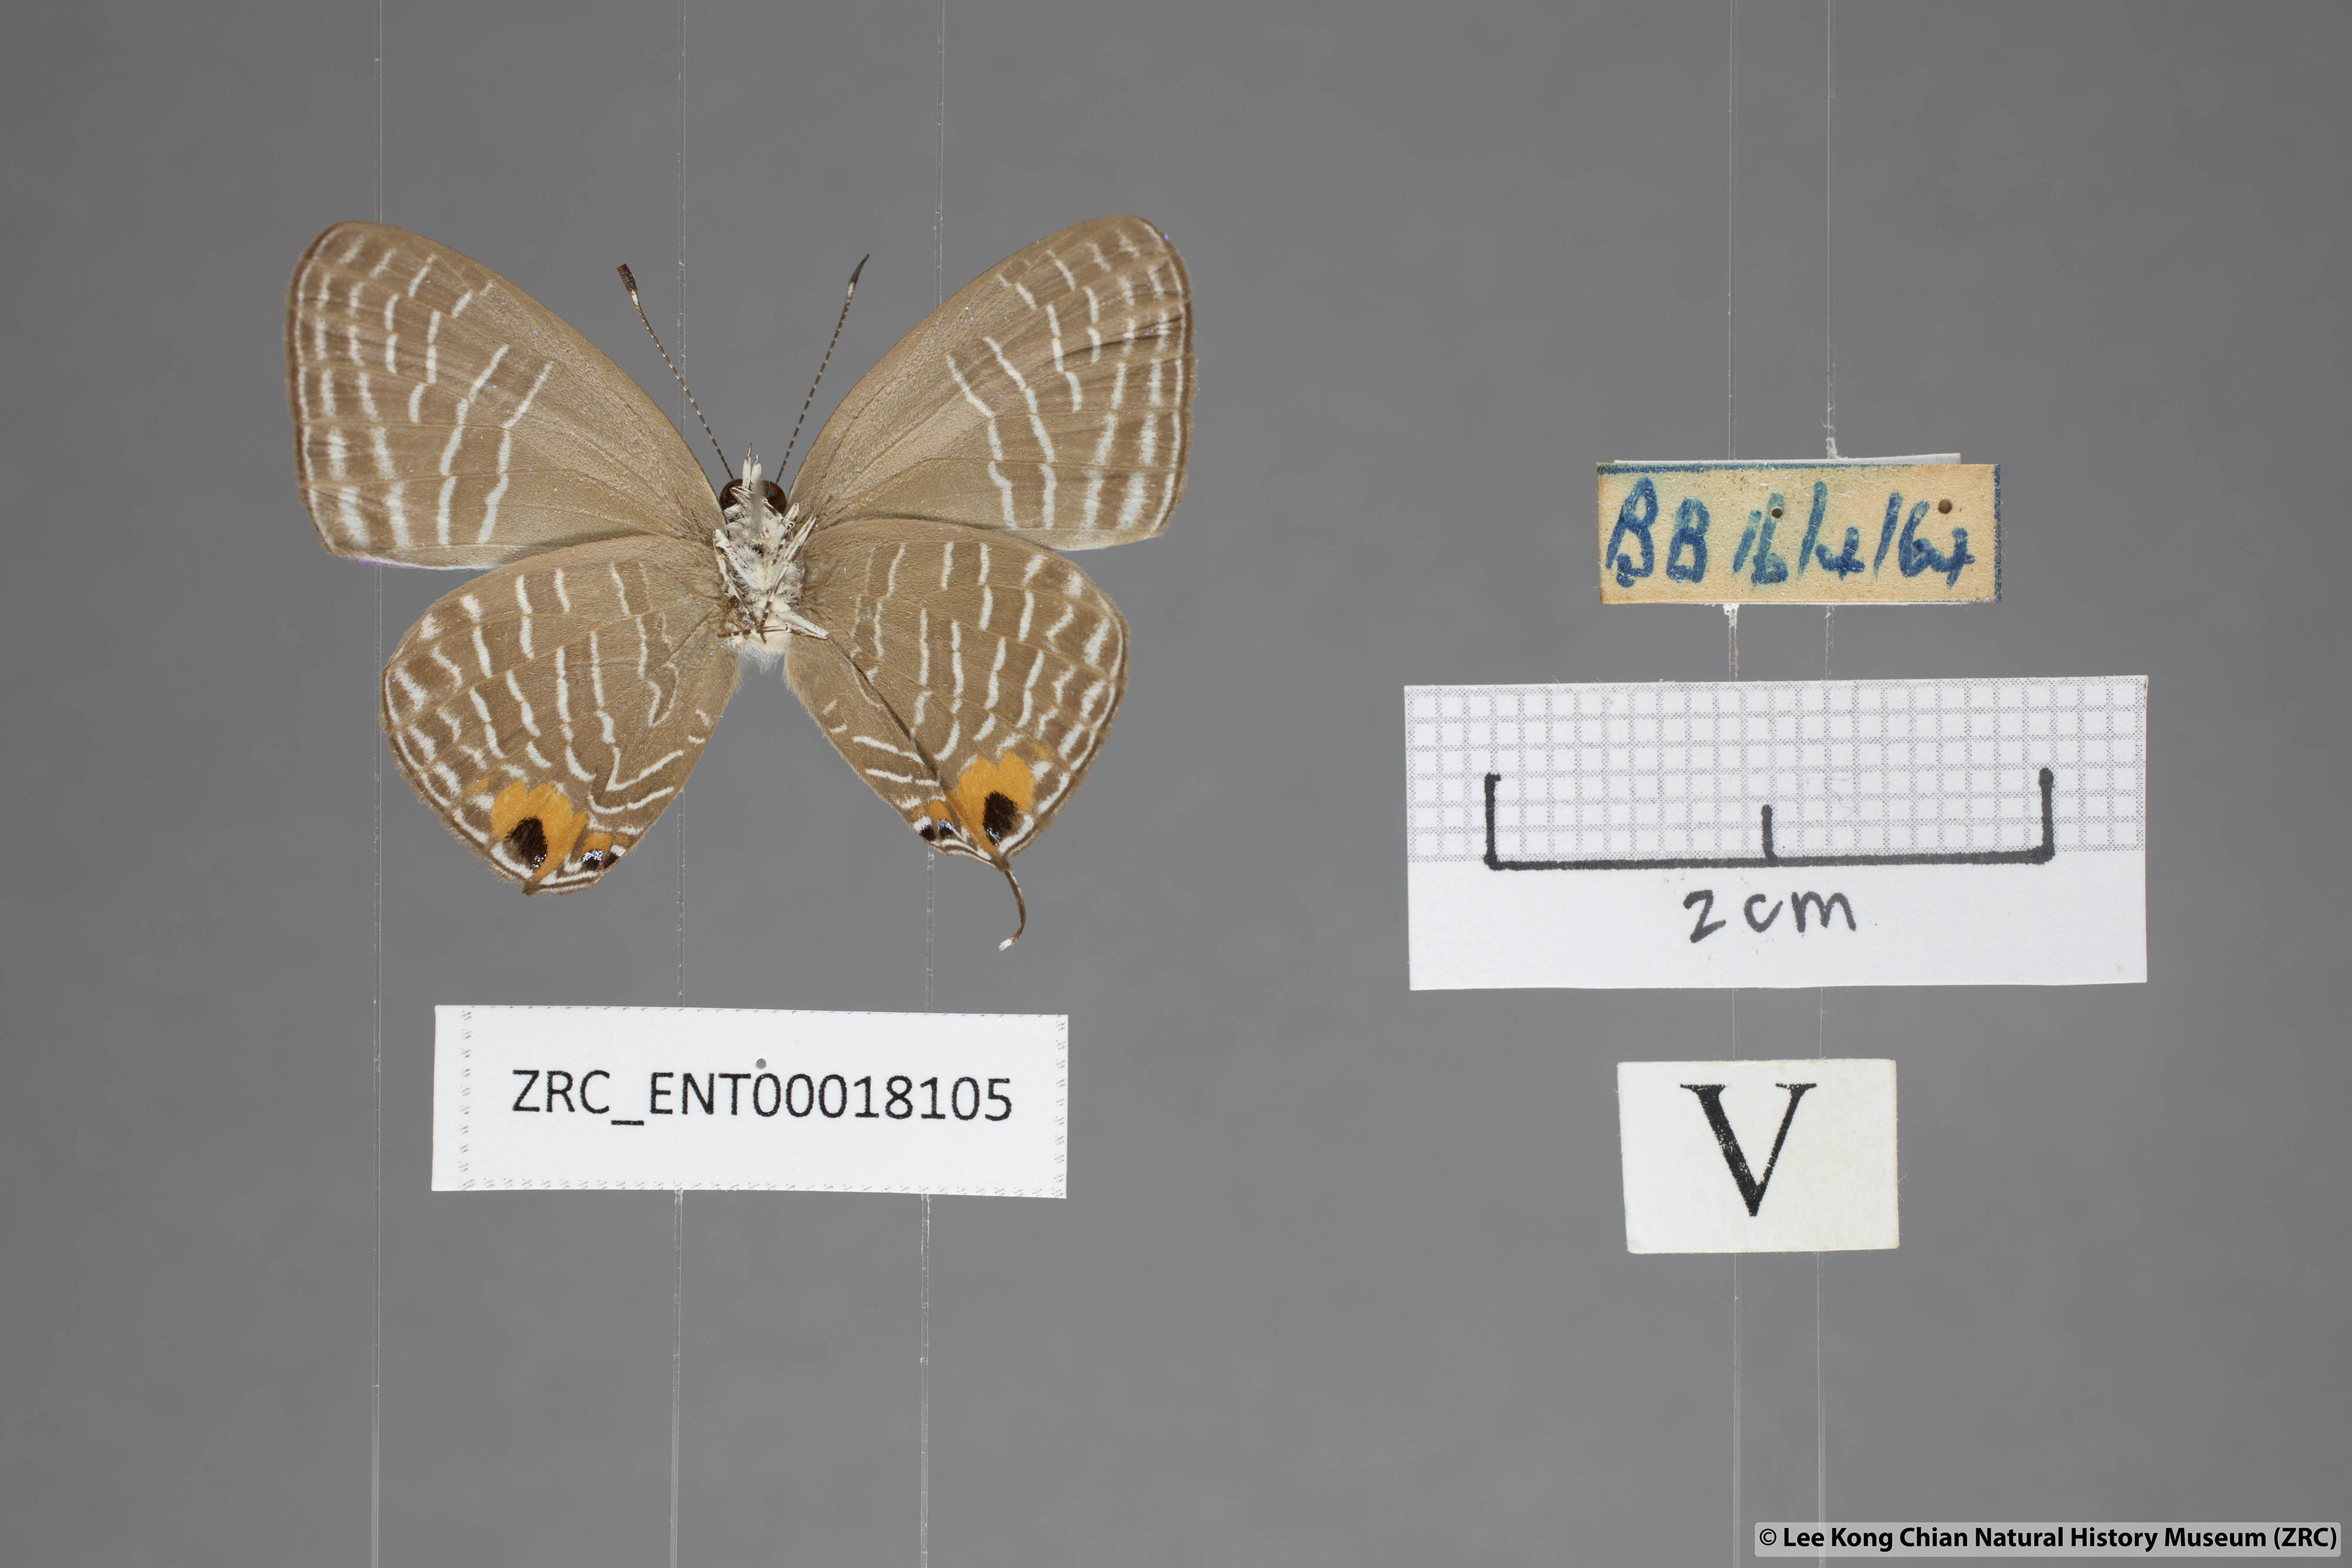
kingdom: Animalia
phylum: Arthropoda
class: Insecta
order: Lepidoptera
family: Lycaenidae
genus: Jamides
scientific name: Jamides
